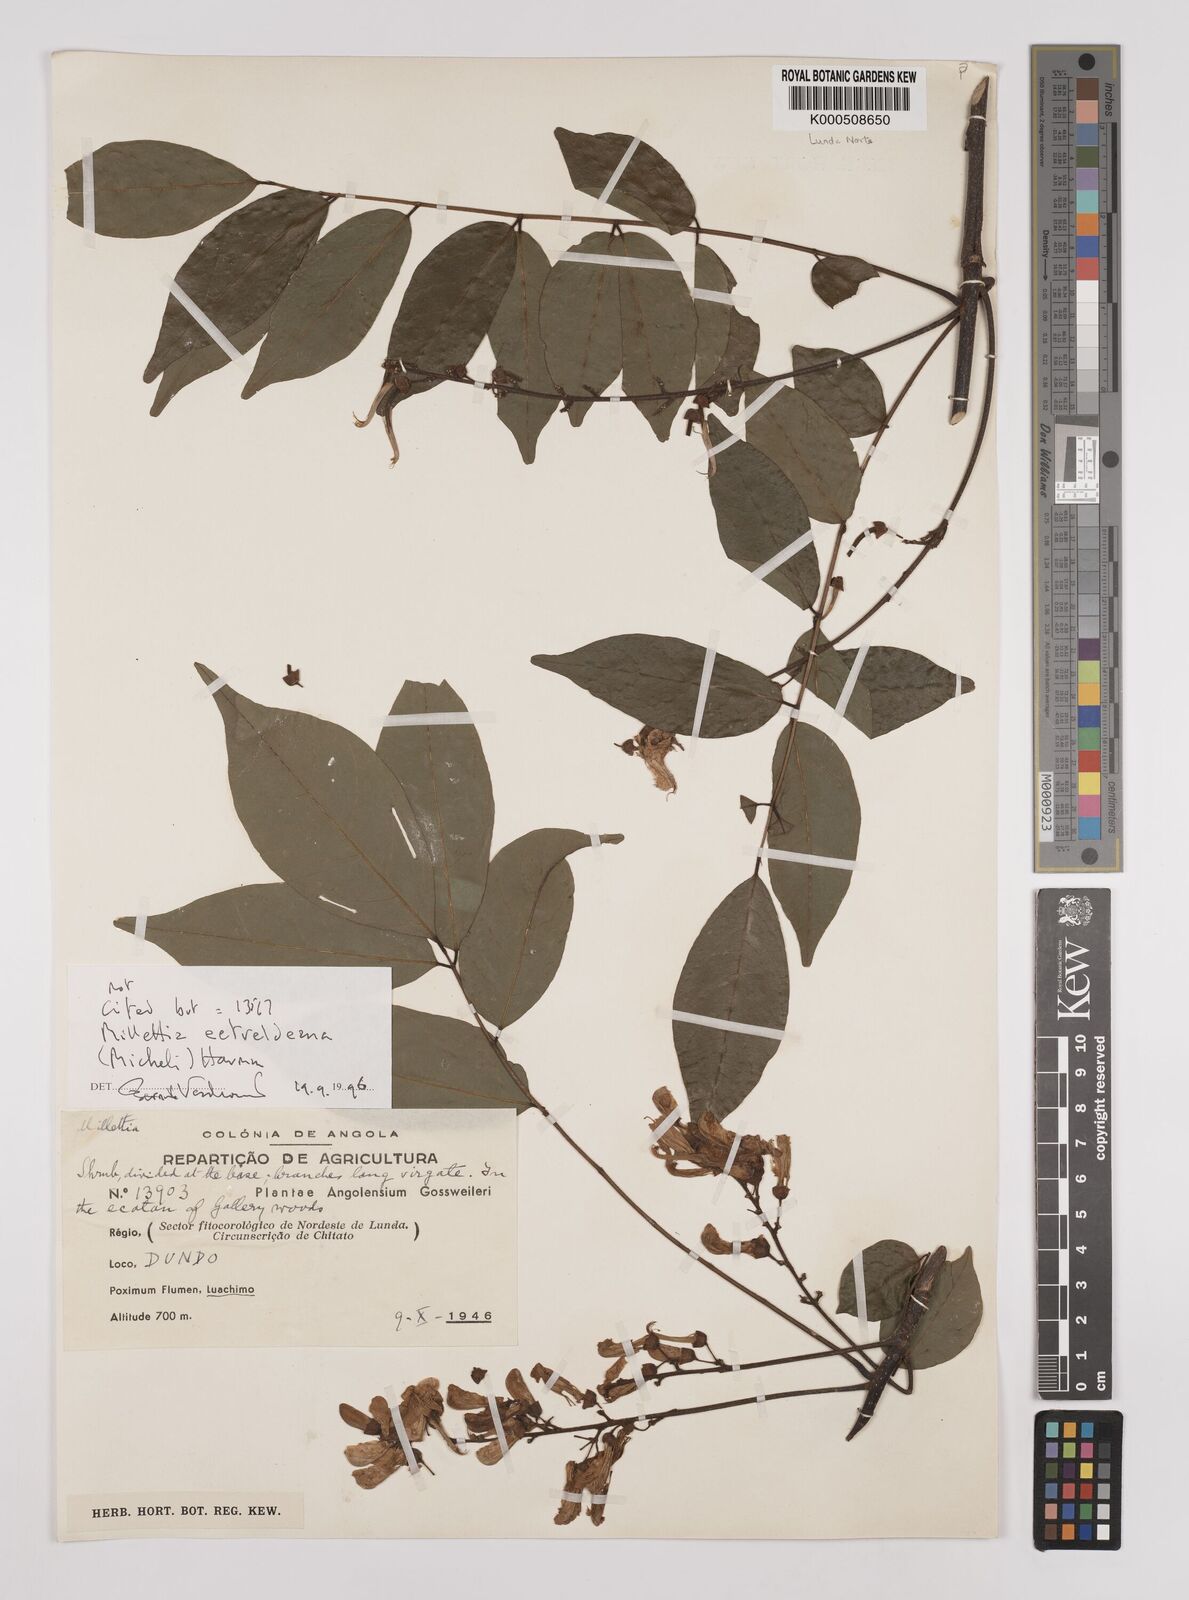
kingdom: Plantae
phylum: Tracheophyta
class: Magnoliopsida
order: Fabales
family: Fabaceae
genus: Millettia
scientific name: Millettia eetveldeana
